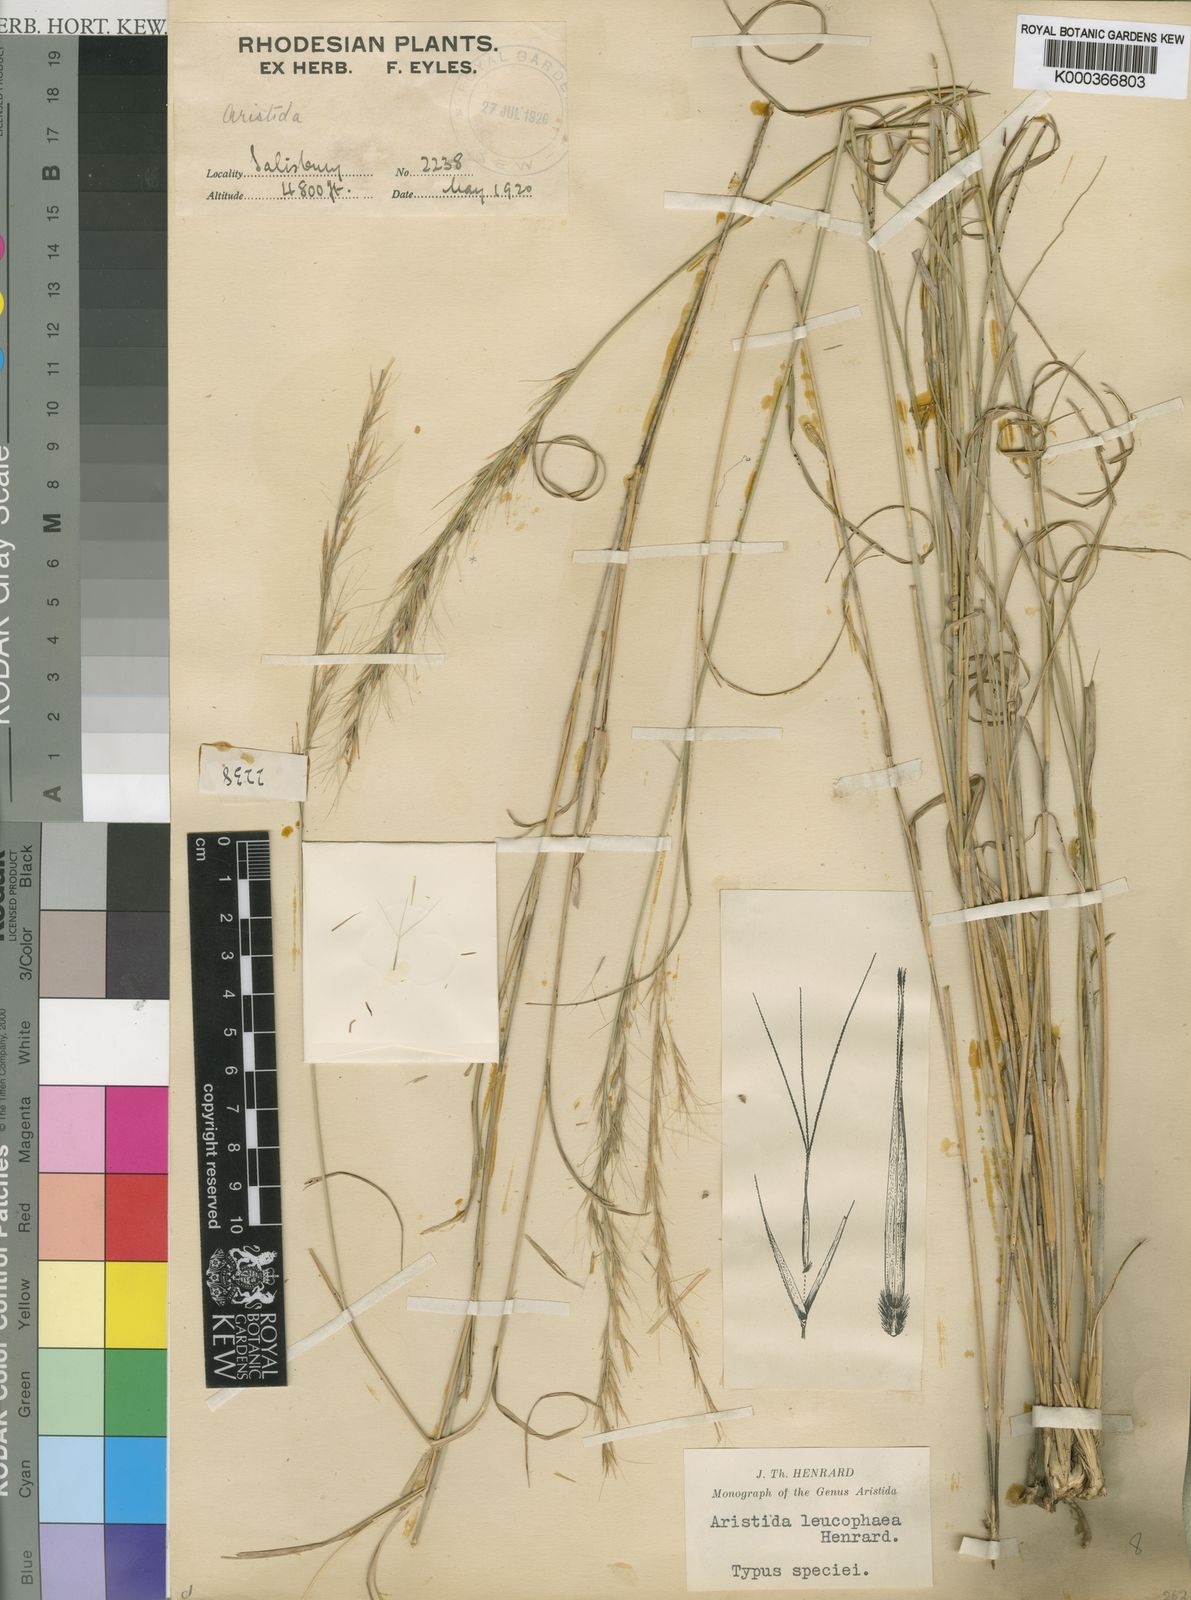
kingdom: Plantae
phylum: Tracheophyta
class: Liliopsida
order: Poales
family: Poaceae
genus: Aristida
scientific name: Aristida leucophaea
